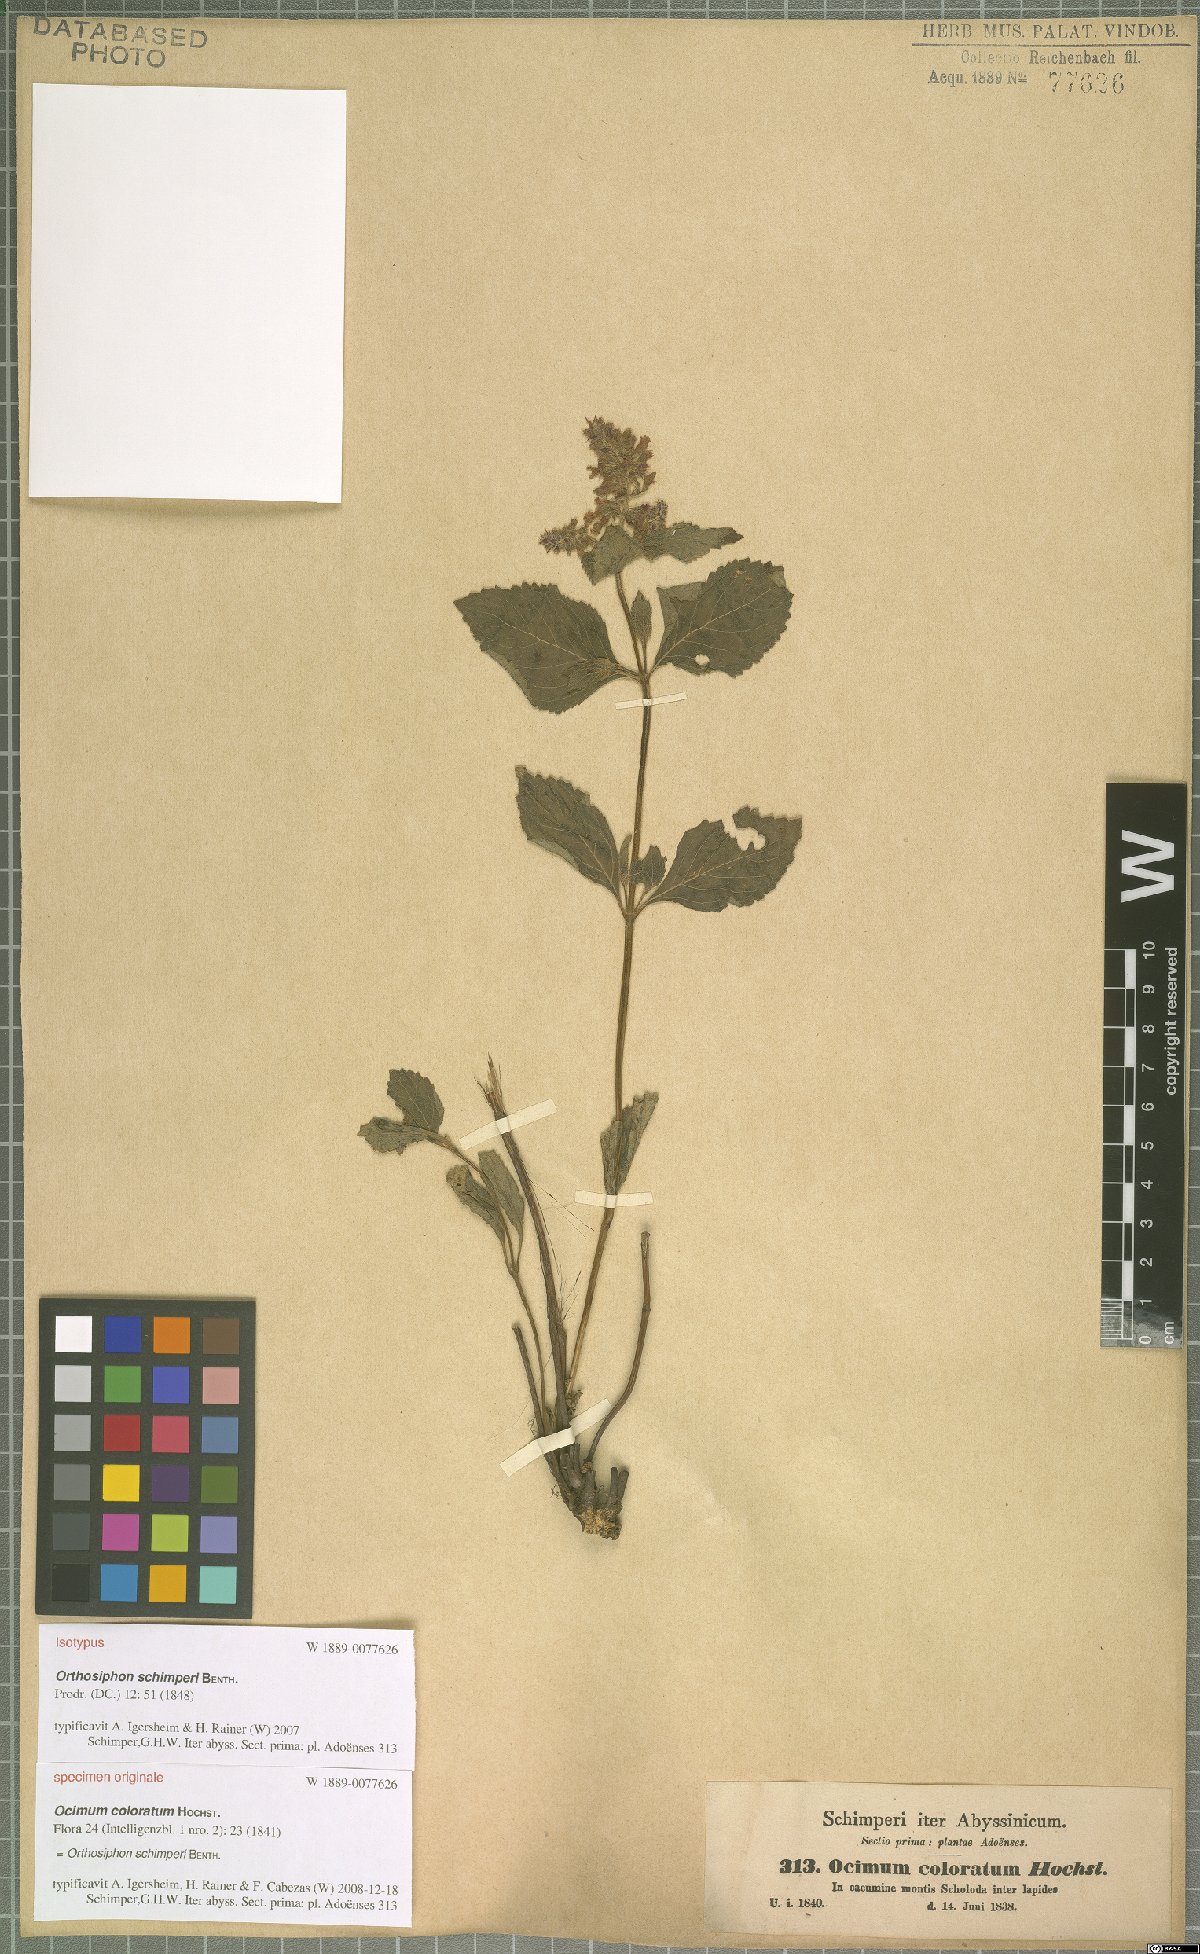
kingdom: Plantae
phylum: Tracheophyta
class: Magnoliopsida
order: Lamiales
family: Lamiaceae
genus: Orthosiphon
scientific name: Orthosiphon schimperi
